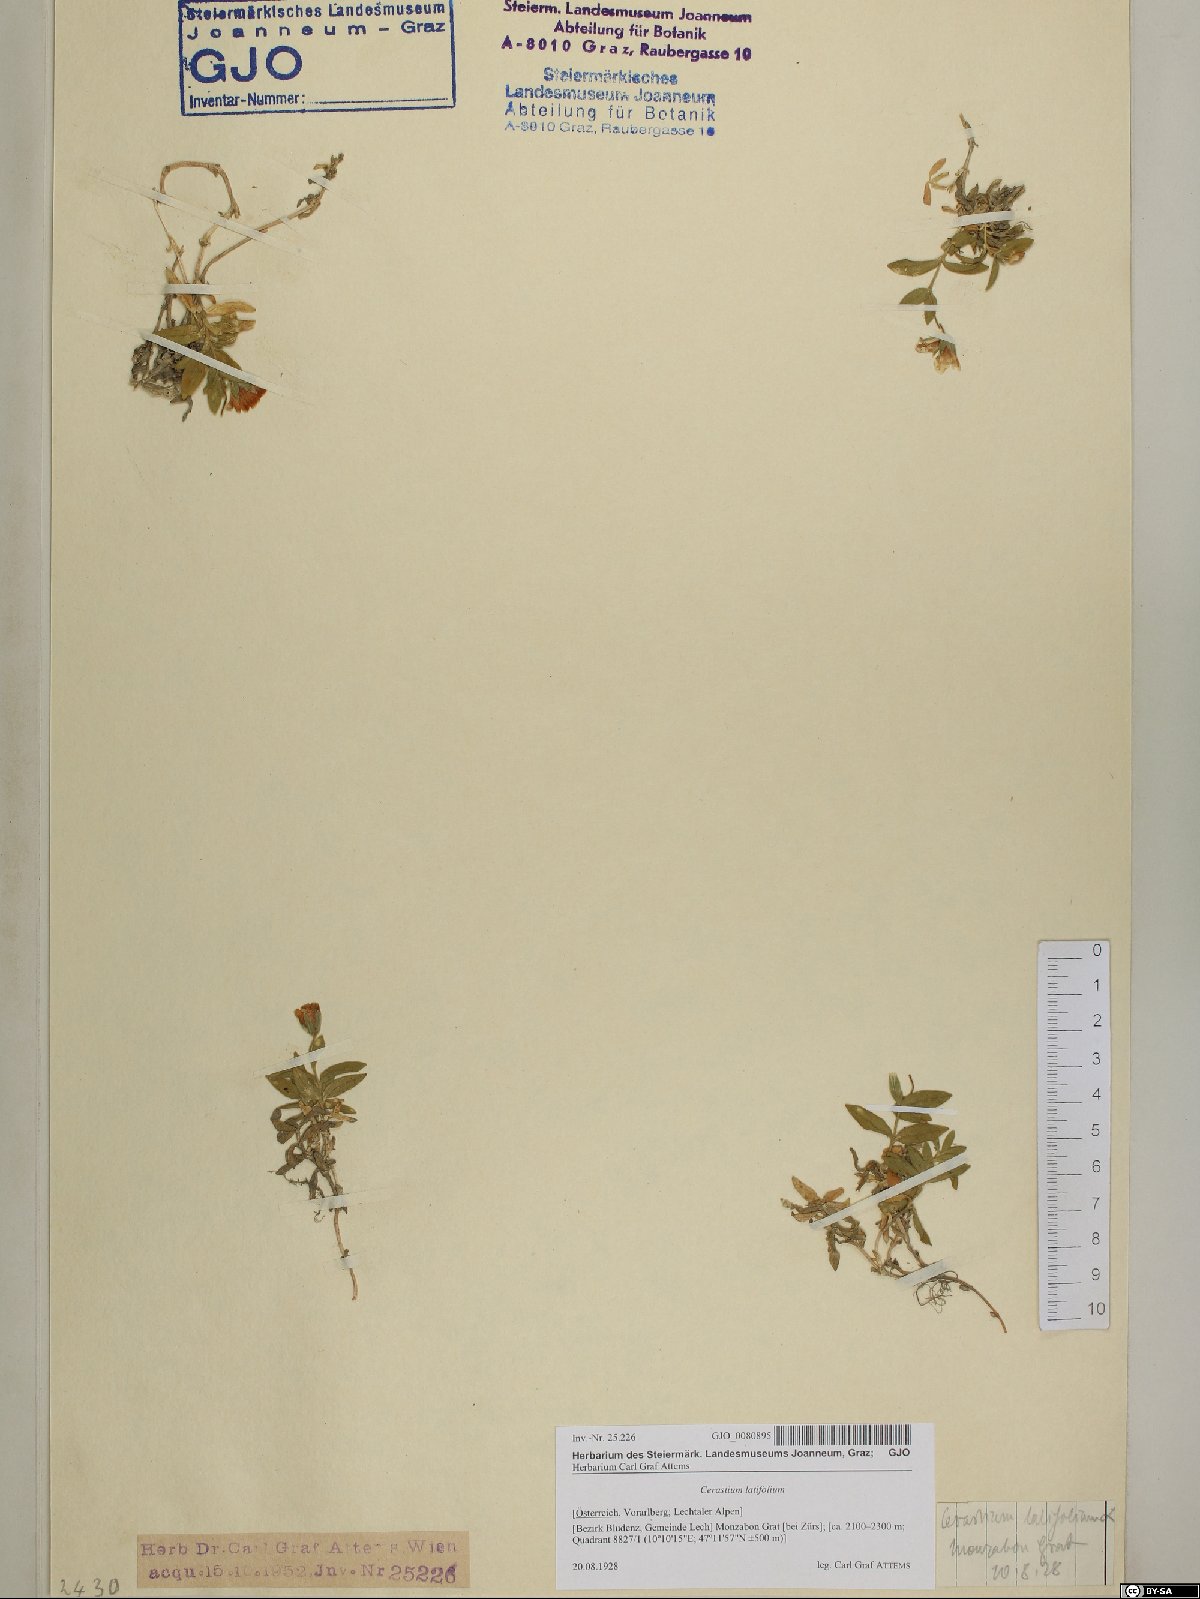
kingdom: Plantae
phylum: Tracheophyta
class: Magnoliopsida
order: Caryophyllales
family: Caryophyllaceae
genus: Cerastium
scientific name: Cerastium latifolium
